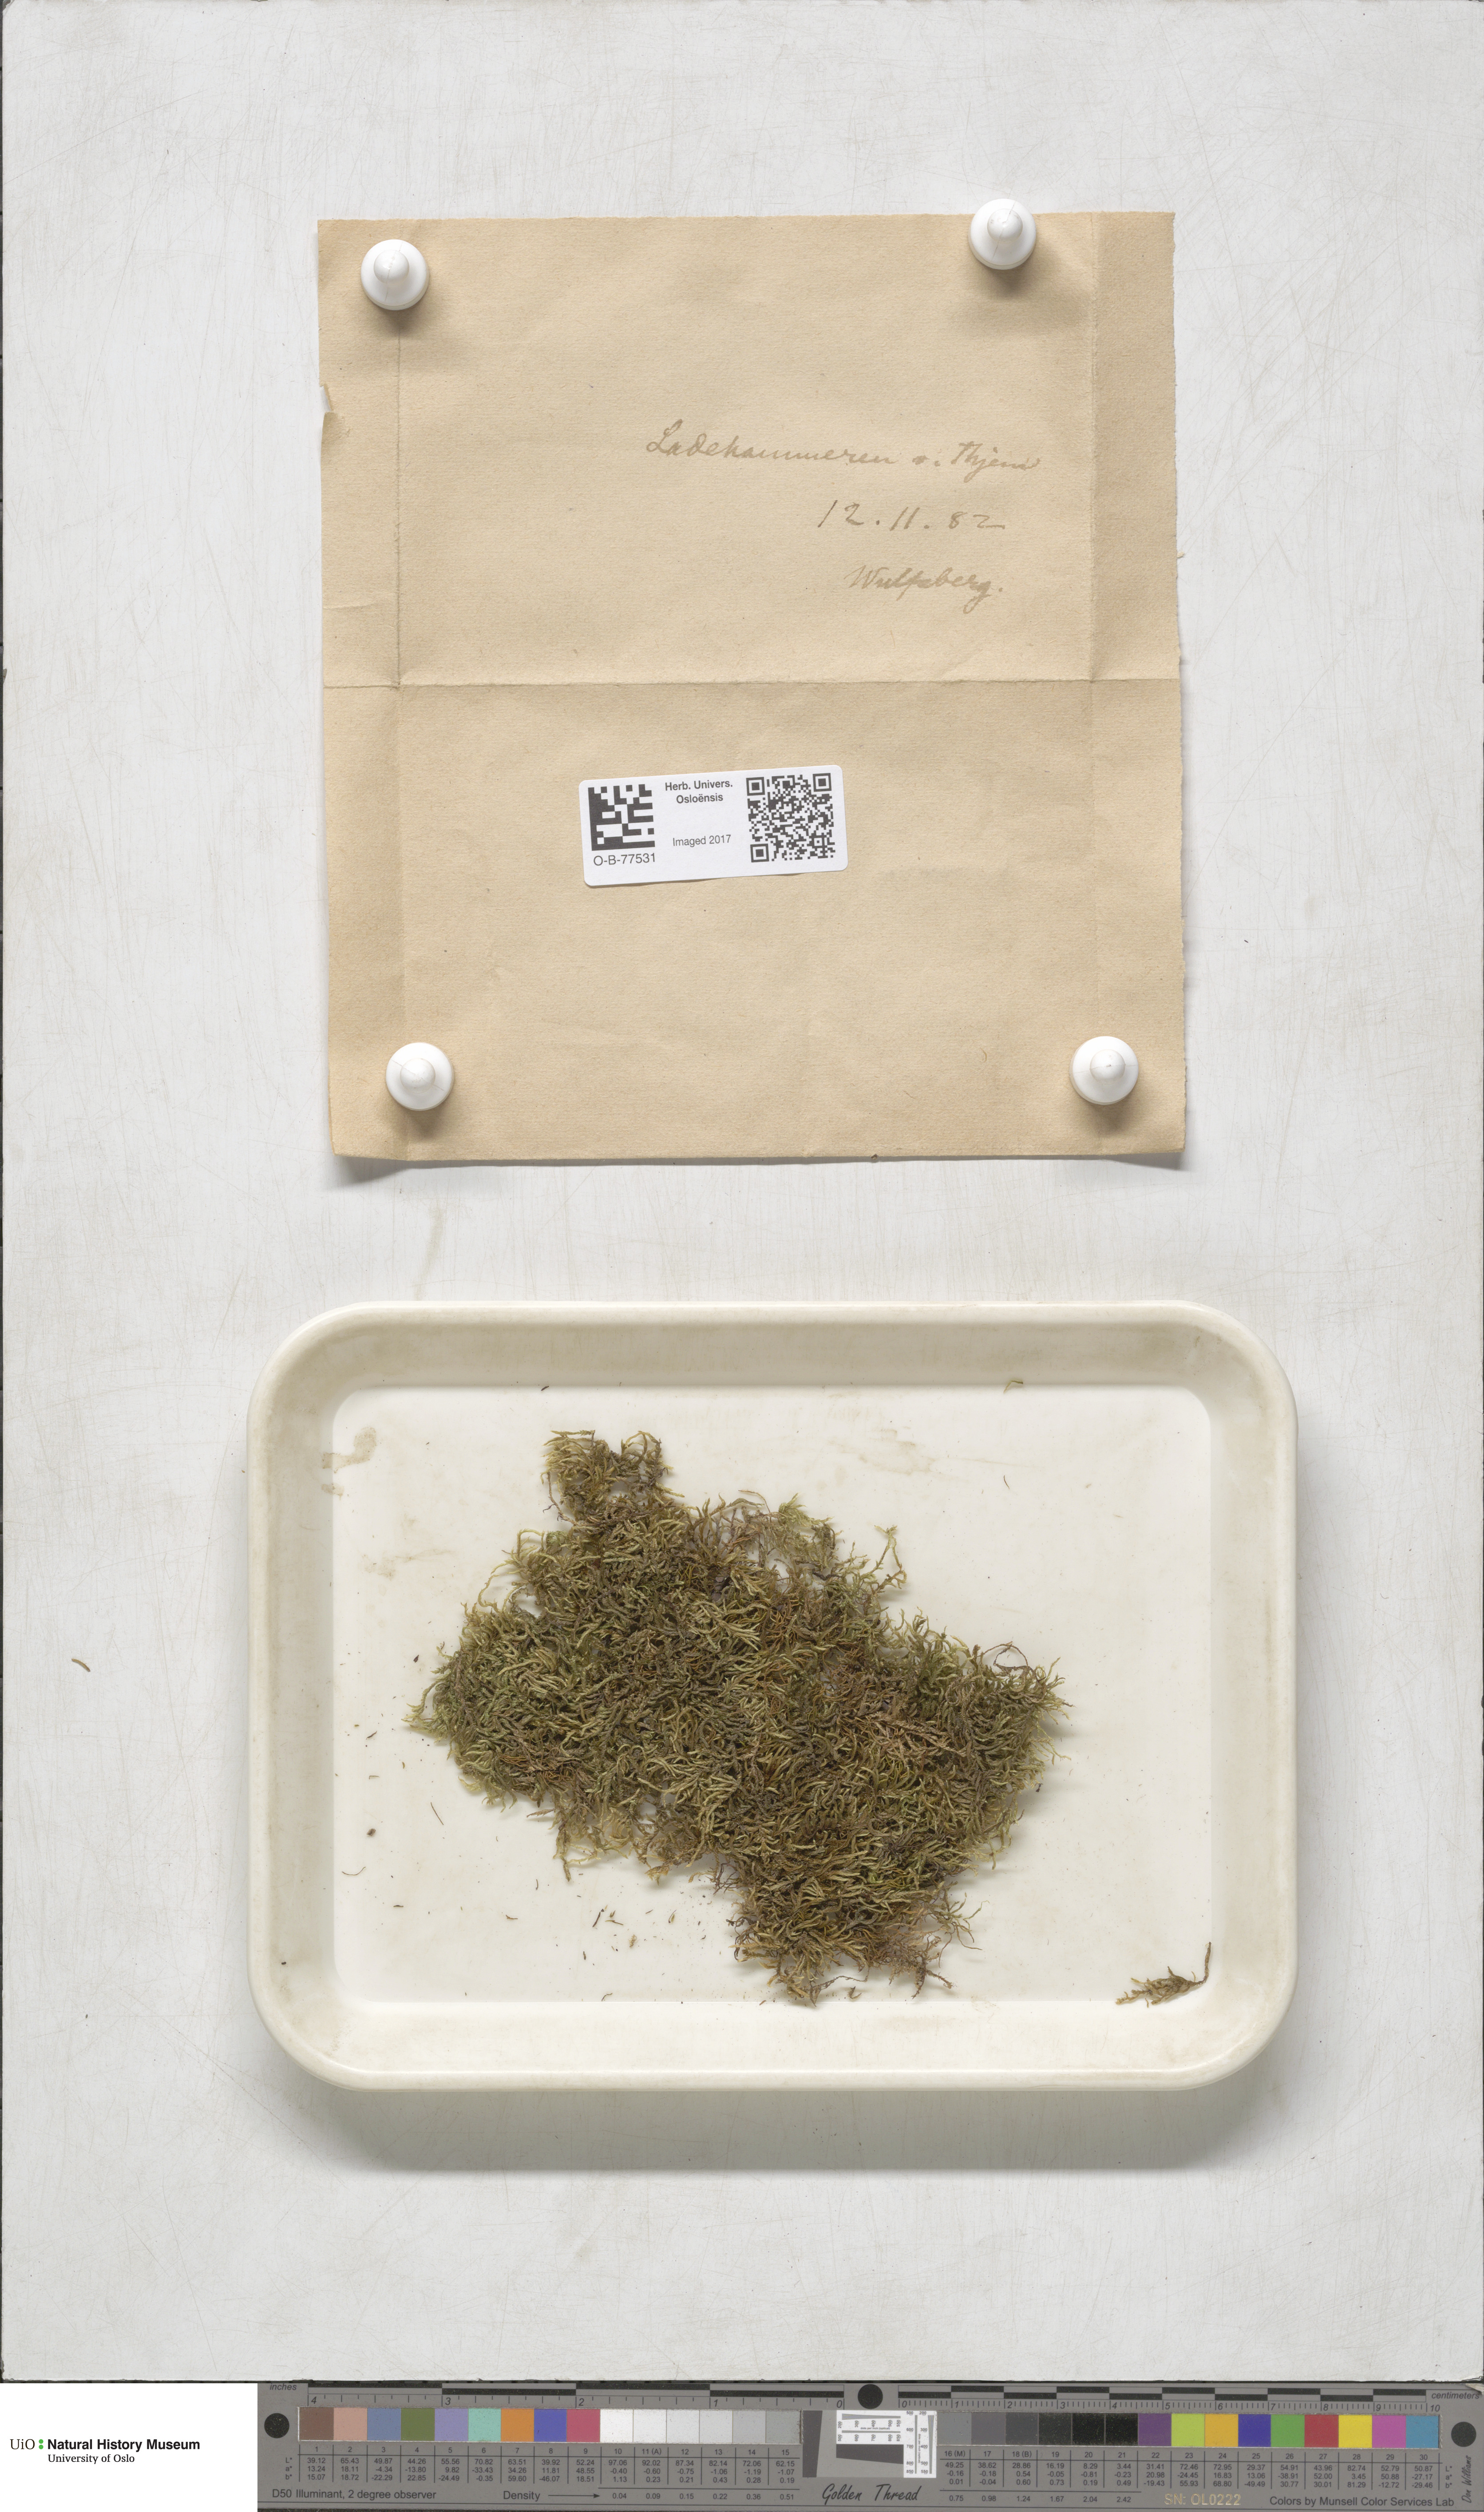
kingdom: Plantae
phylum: Bryophyta
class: Bryopsida
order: Hypnales
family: Hypnaceae
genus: Hypnum
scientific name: Hypnum cupressiforme
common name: Cypress-leaved plait-moss
